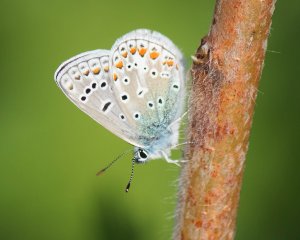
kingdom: Animalia
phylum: Arthropoda
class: Insecta
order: Lepidoptera
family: Lycaenidae
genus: Polyommatus
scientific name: Polyommatus icarus
